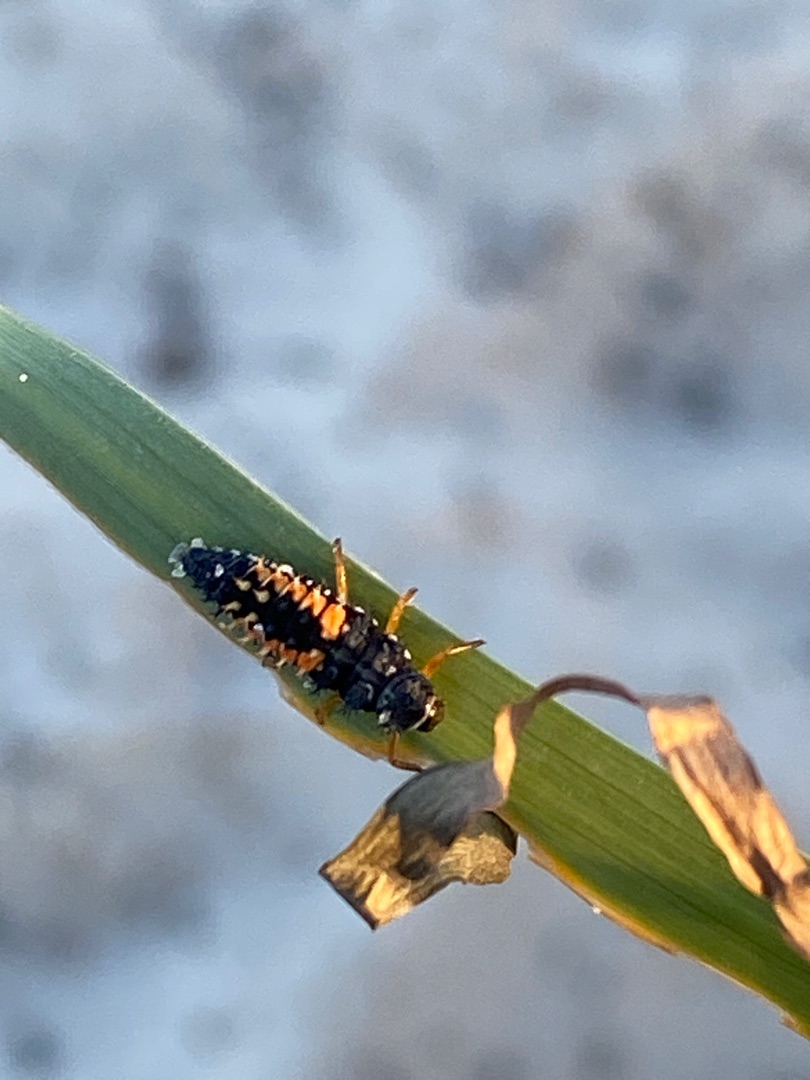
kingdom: Animalia
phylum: Arthropoda
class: Insecta
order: Coleoptera
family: Coccinellidae
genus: Harmonia
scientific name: Harmonia axyridis
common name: Harlekinmariehøne
